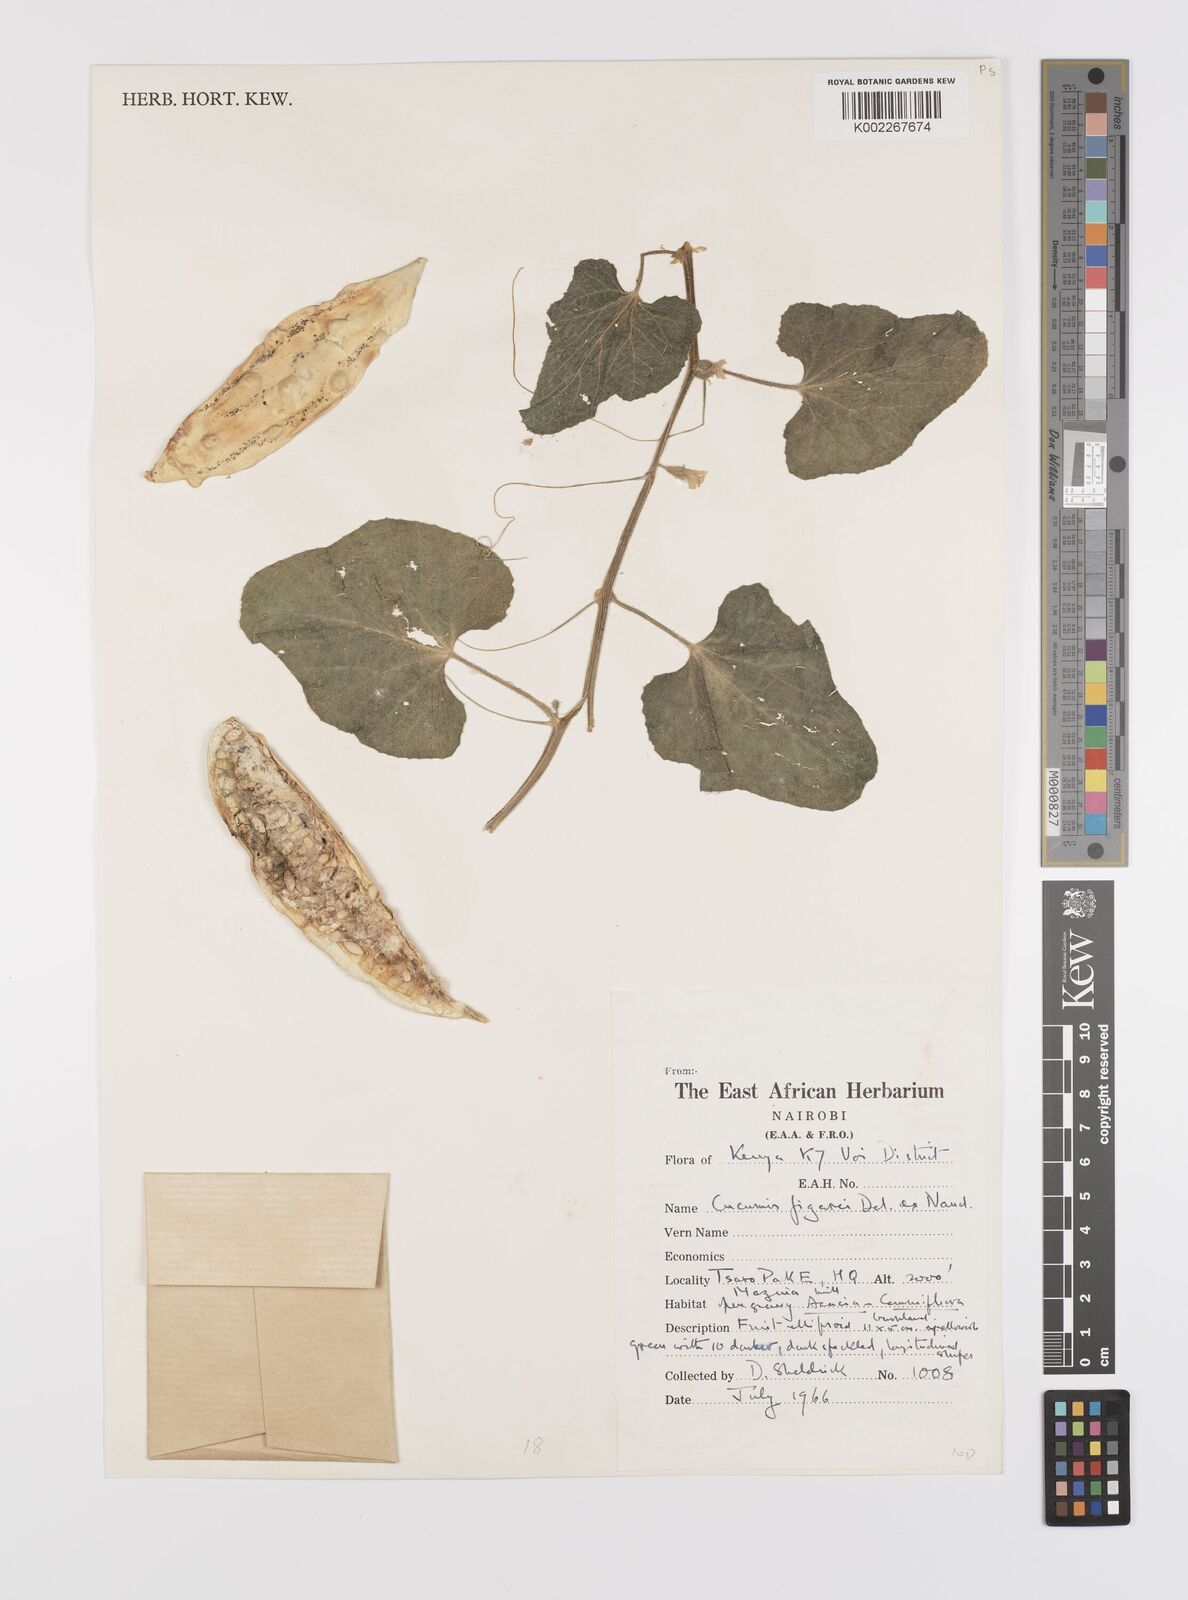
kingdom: Plantae
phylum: Tracheophyta
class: Magnoliopsida
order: Cucurbitales
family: Cucurbitaceae
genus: Cucumis
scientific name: Cucumis
